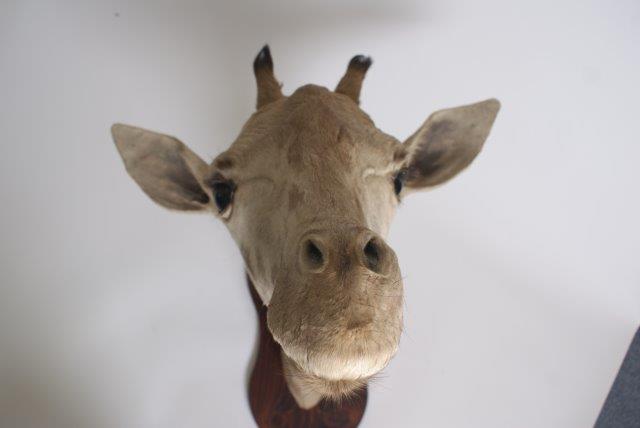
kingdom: Animalia
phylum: Chordata
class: Mammalia
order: Artiodactyla
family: Giraffidae
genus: Giraffa
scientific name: Giraffa camelopardalis
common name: Giraffe
